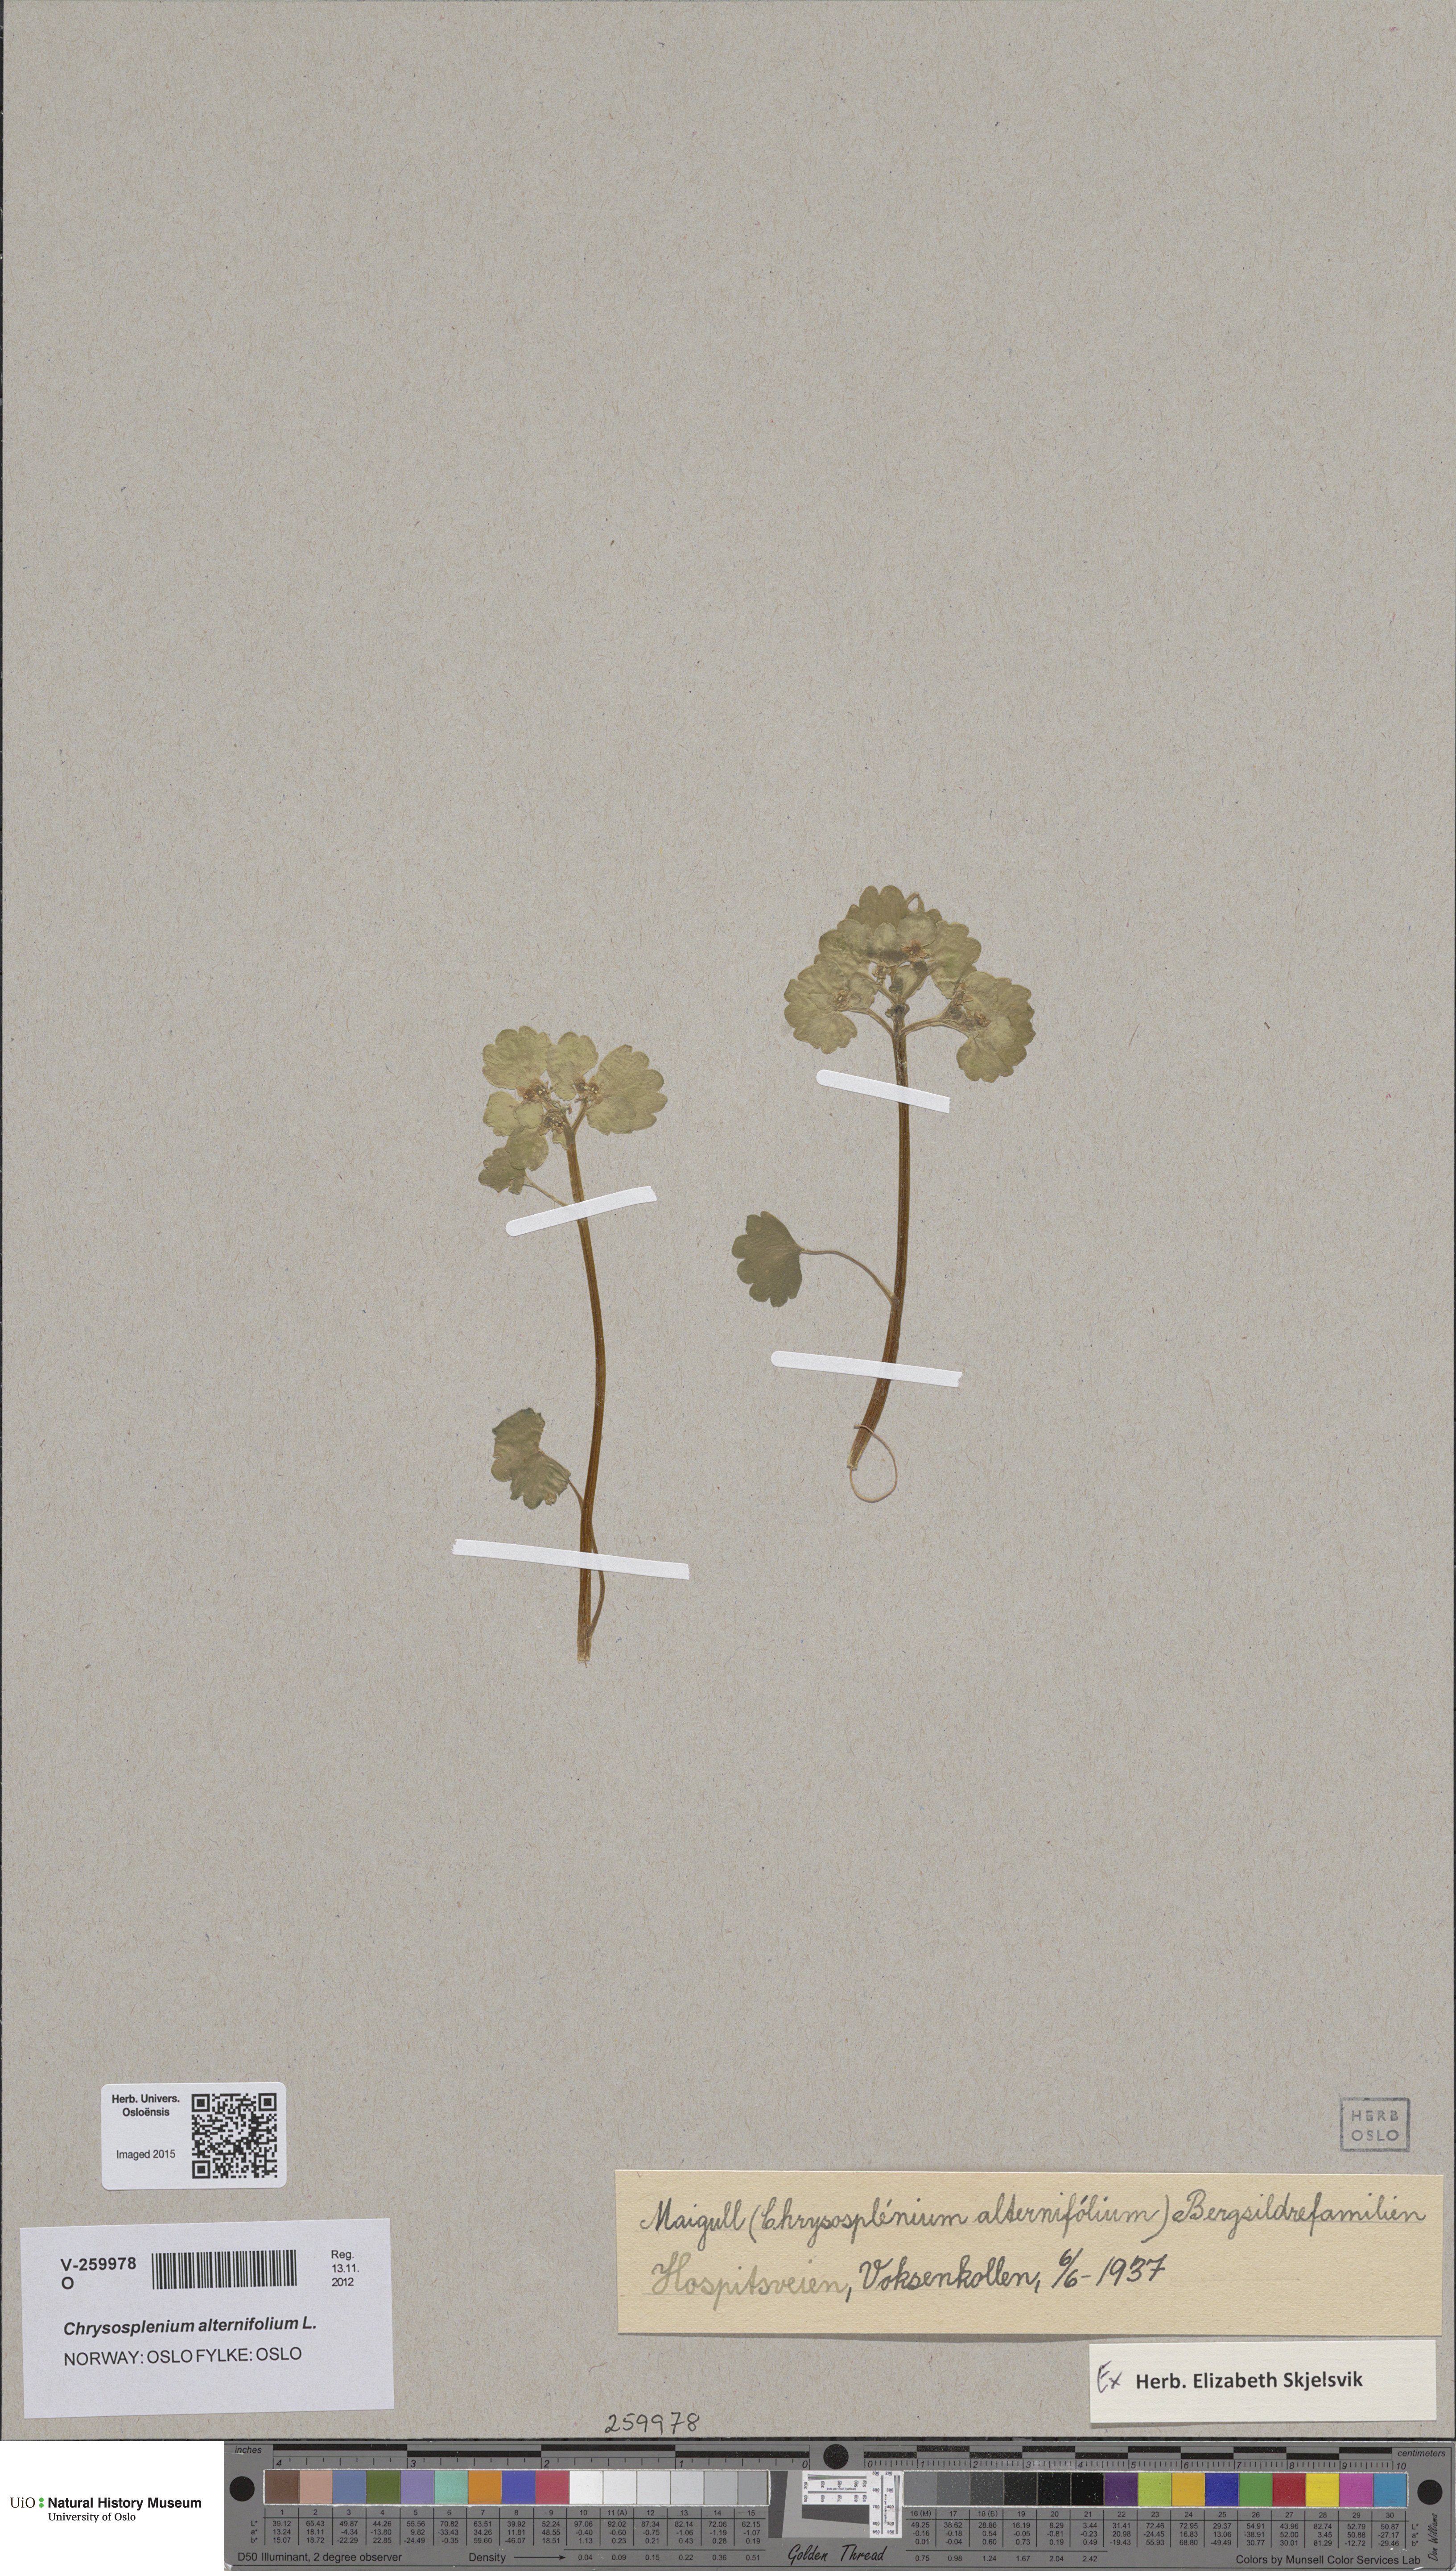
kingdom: Plantae
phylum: Tracheophyta
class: Magnoliopsida
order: Saxifragales
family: Saxifragaceae
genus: Chrysosplenium
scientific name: Chrysosplenium alternifolium
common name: Alternate-leaved golden-saxifrage
